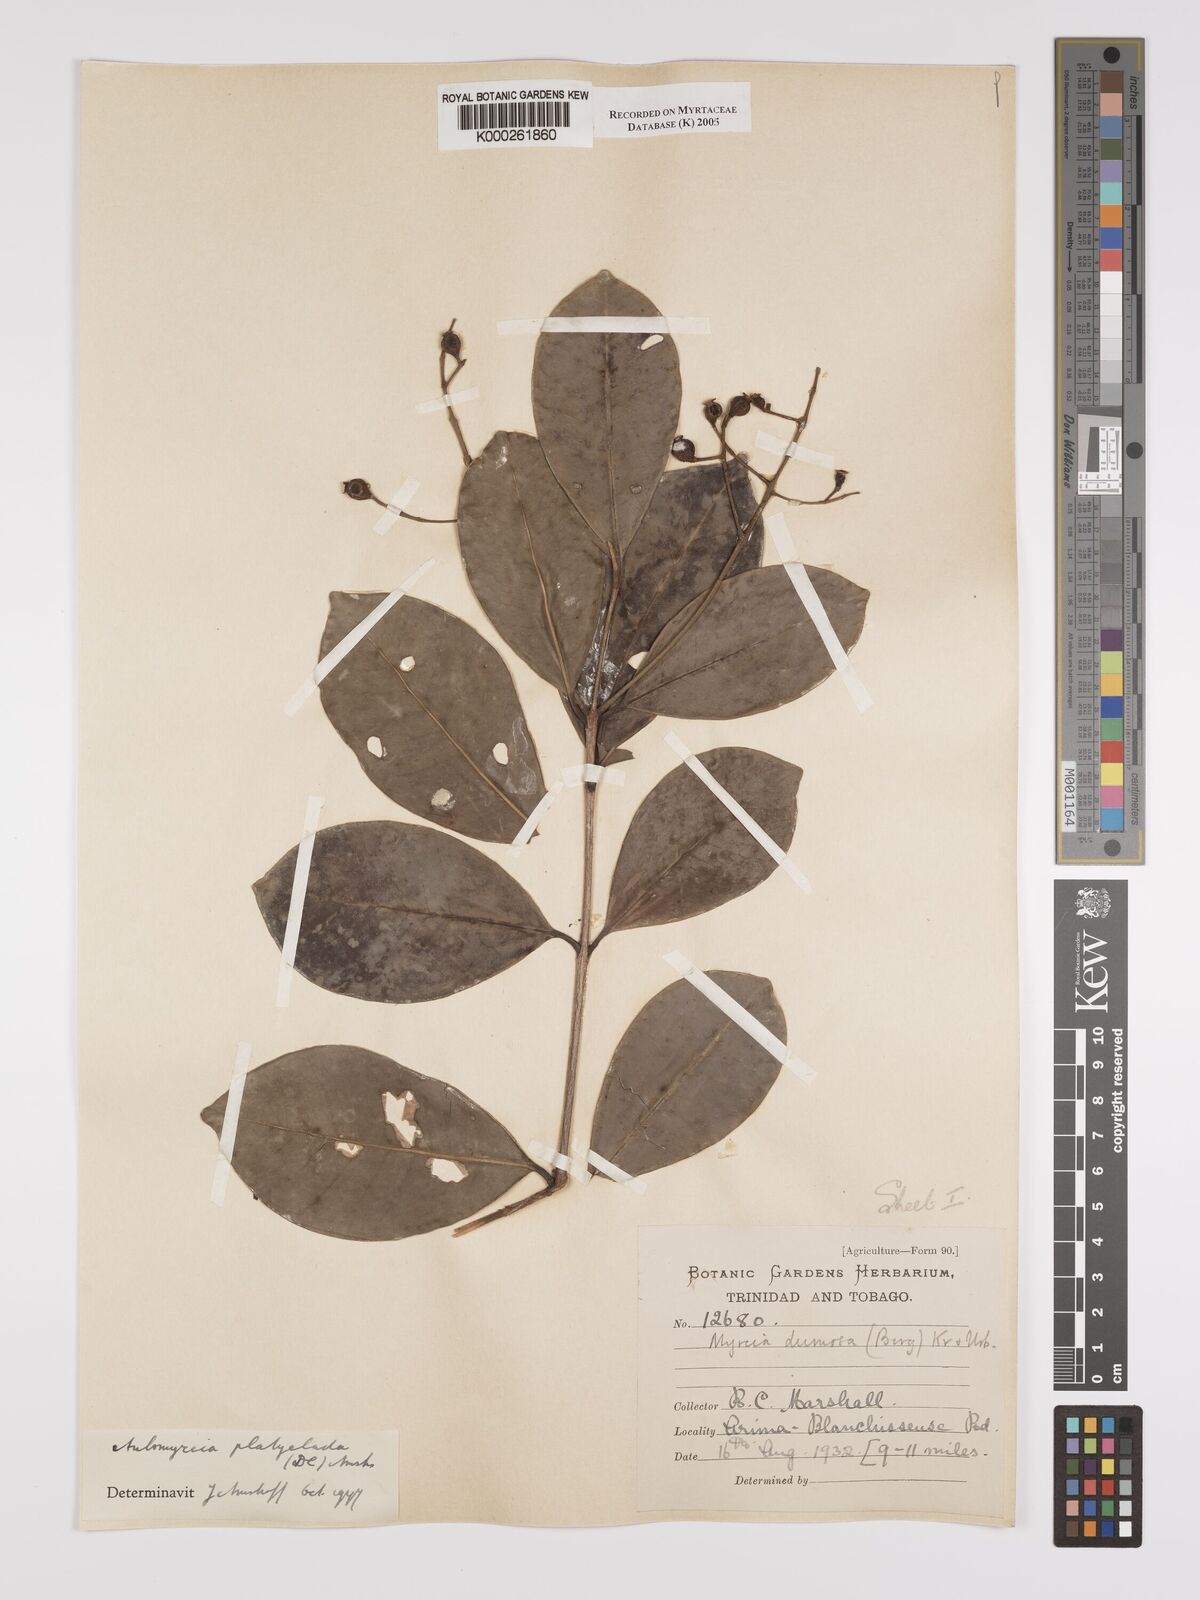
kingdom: Plantae
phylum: Tracheophyta
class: Magnoliopsida
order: Myrtales
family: Myrtaceae
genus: Myrcia
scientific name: Myrcia platyclada
